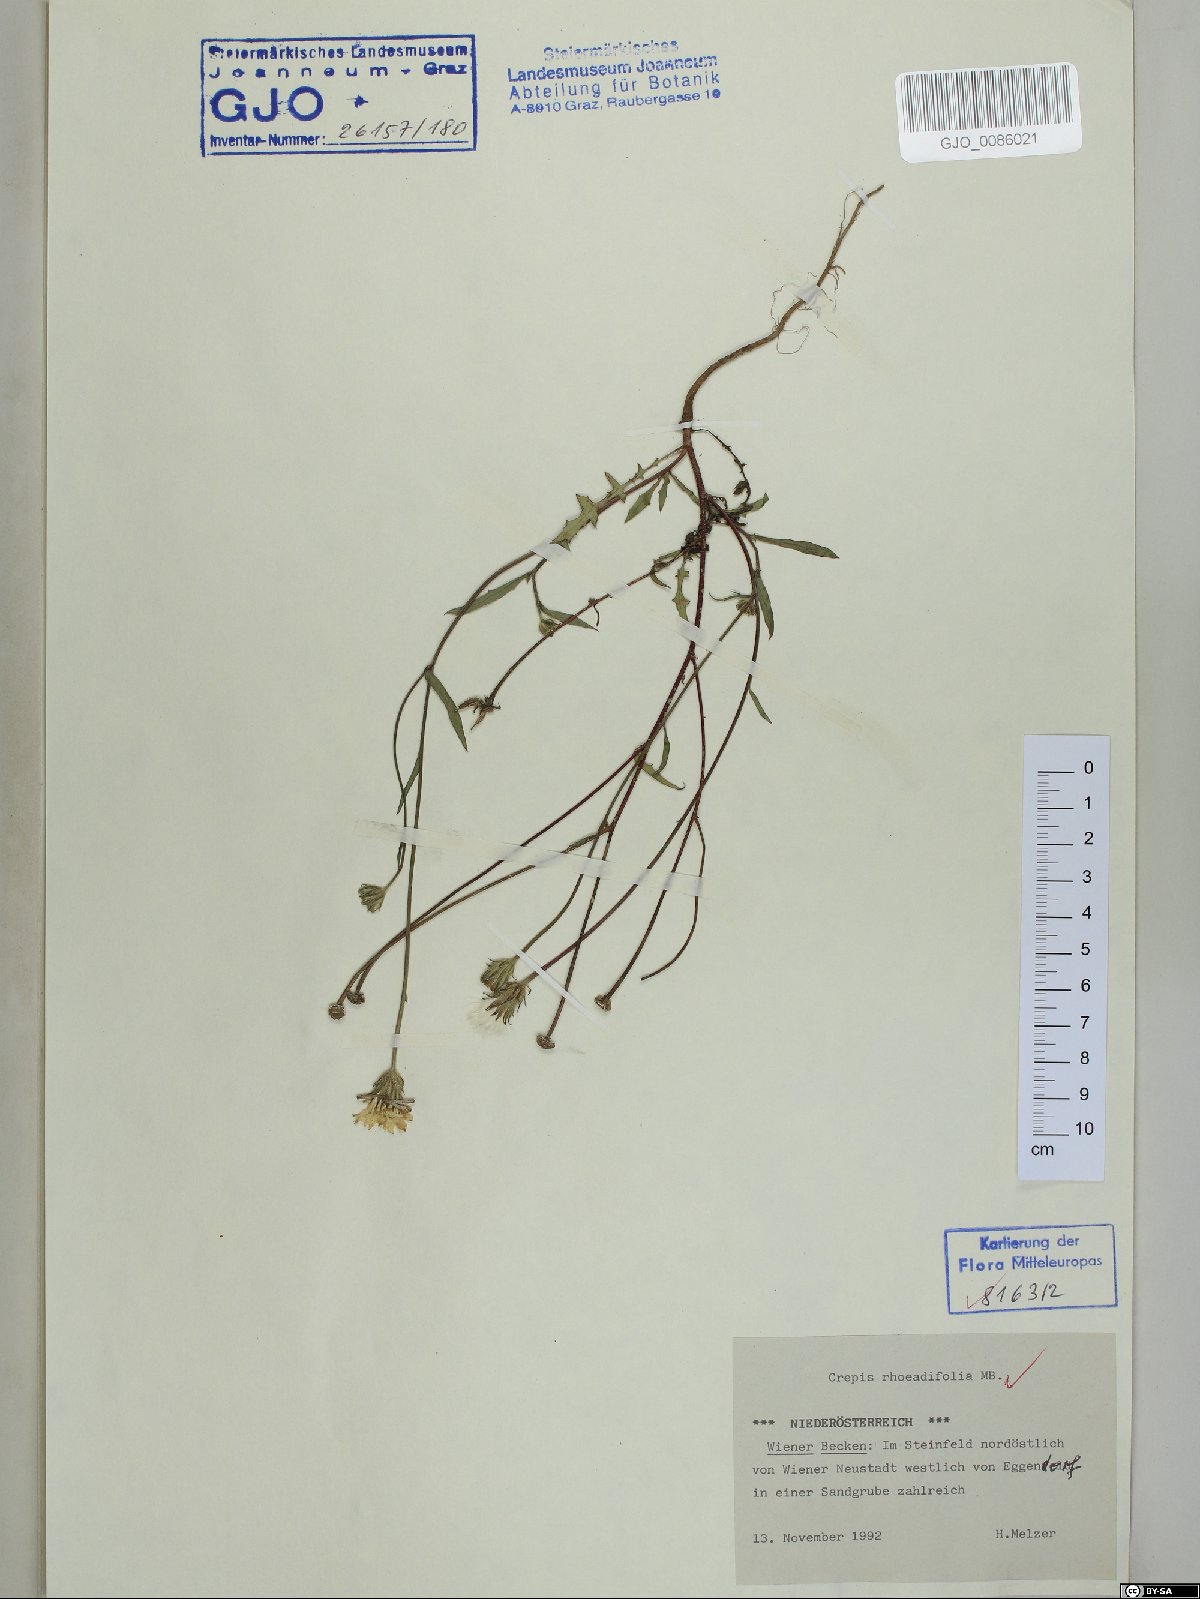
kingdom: Plantae
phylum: Tracheophyta
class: Magnoliopsida
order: Asterales
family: Asteraceae
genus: Crepis
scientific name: Crepis foetida
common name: Stinking hawk's-beard
